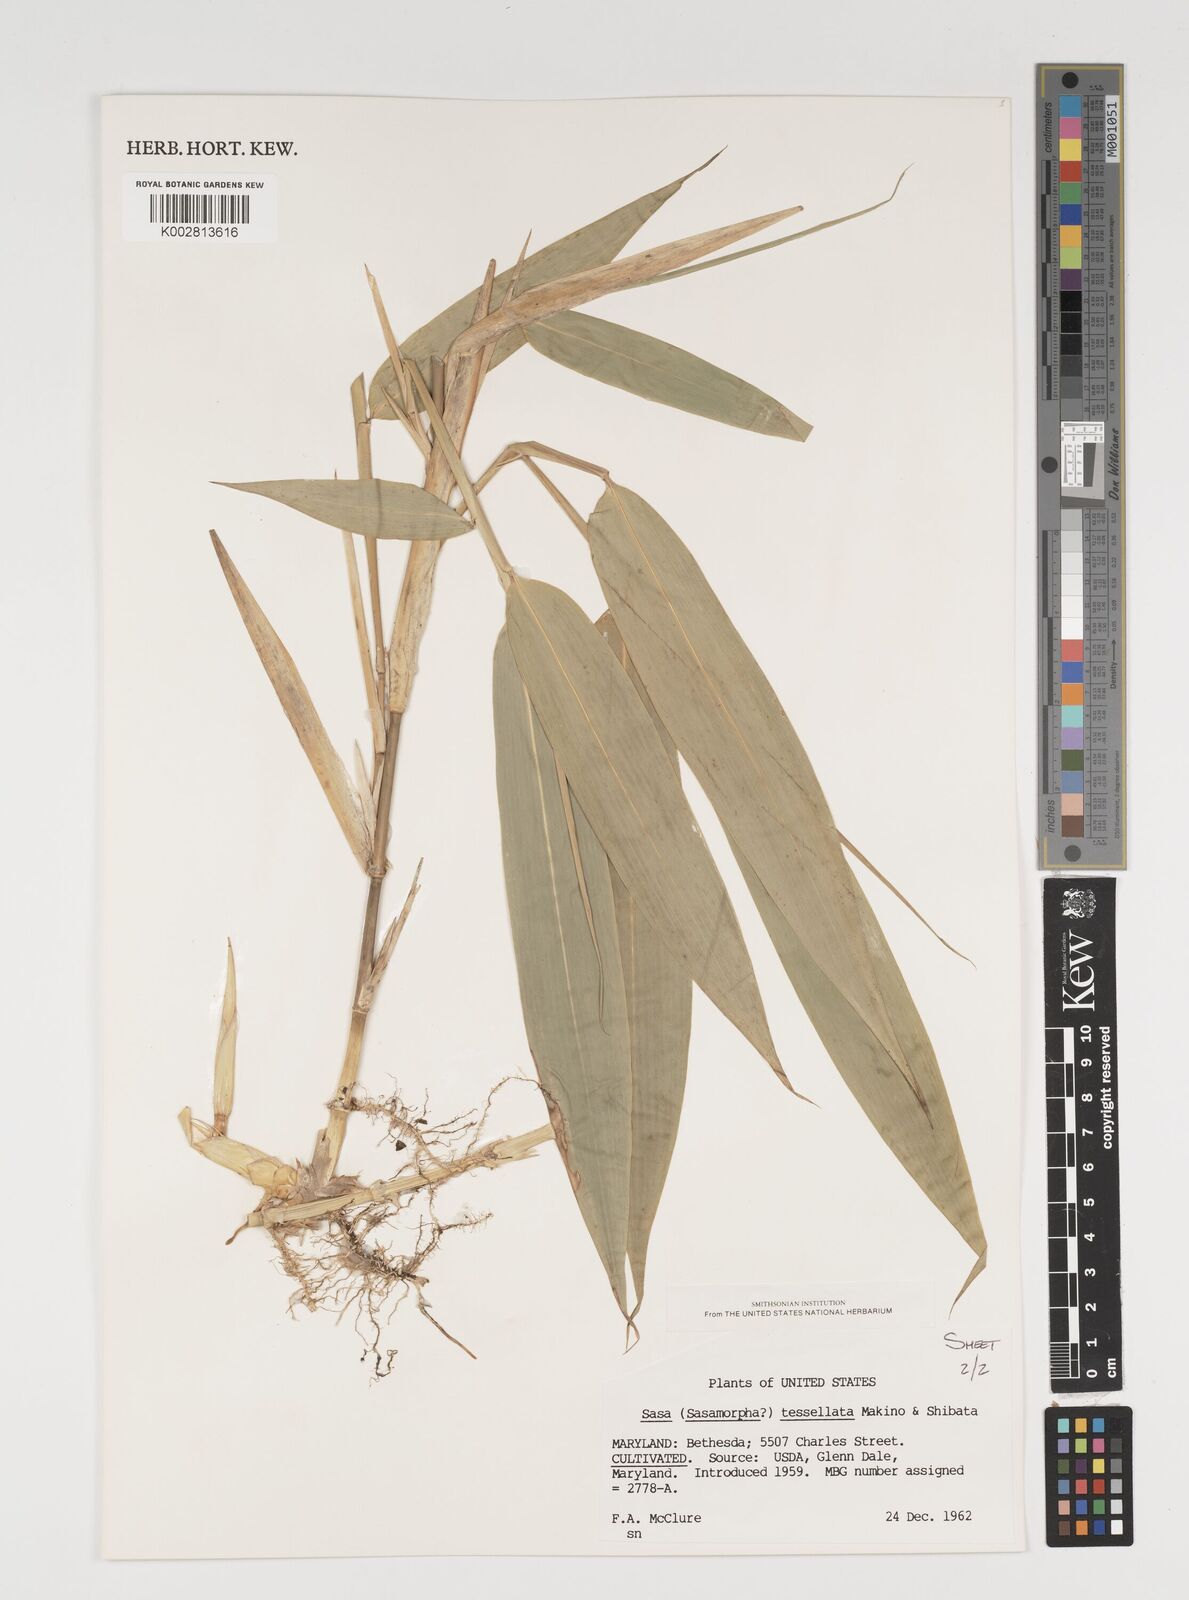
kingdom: Plantae
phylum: Tracheophyta
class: Liliopsida
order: Poales
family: Poaceae
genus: Indocalamus
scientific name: Indocalamus tessellatus
